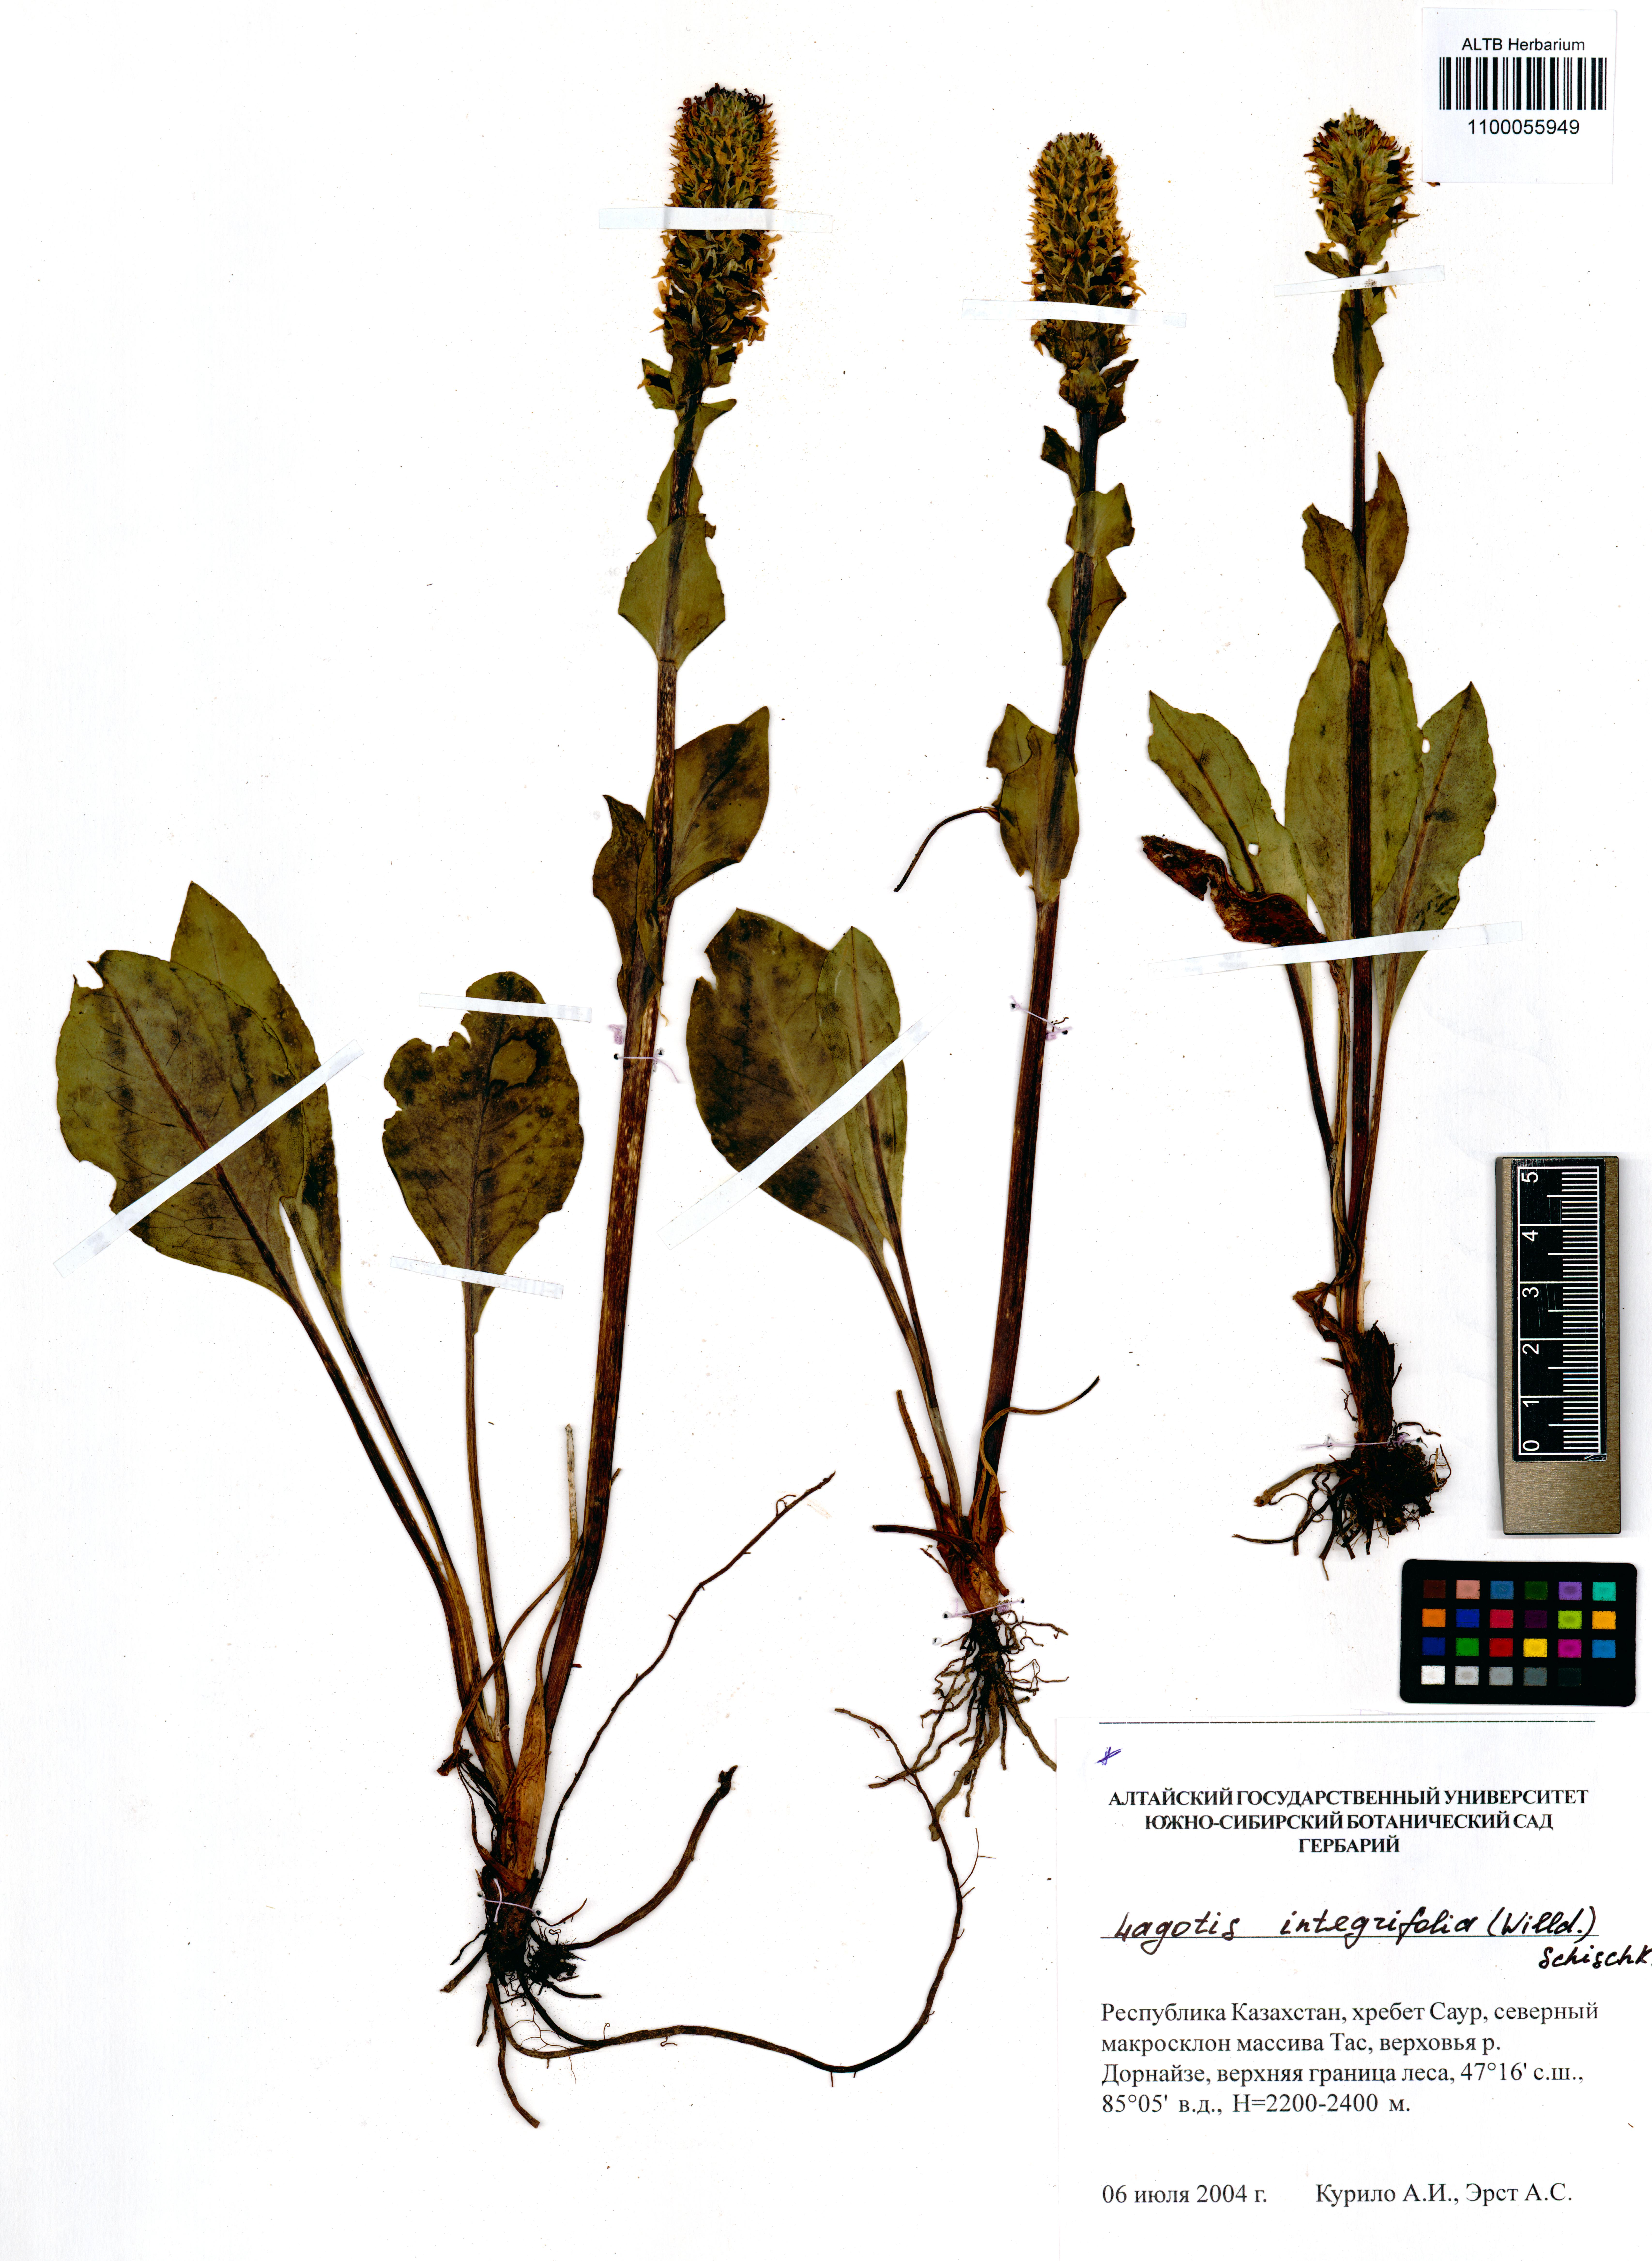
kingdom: Plantae
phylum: Tracheophyta
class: Magnoliopsida
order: Lamiales
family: Plantaginaceae
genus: Lagotis
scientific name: Lagotis integrifolia
